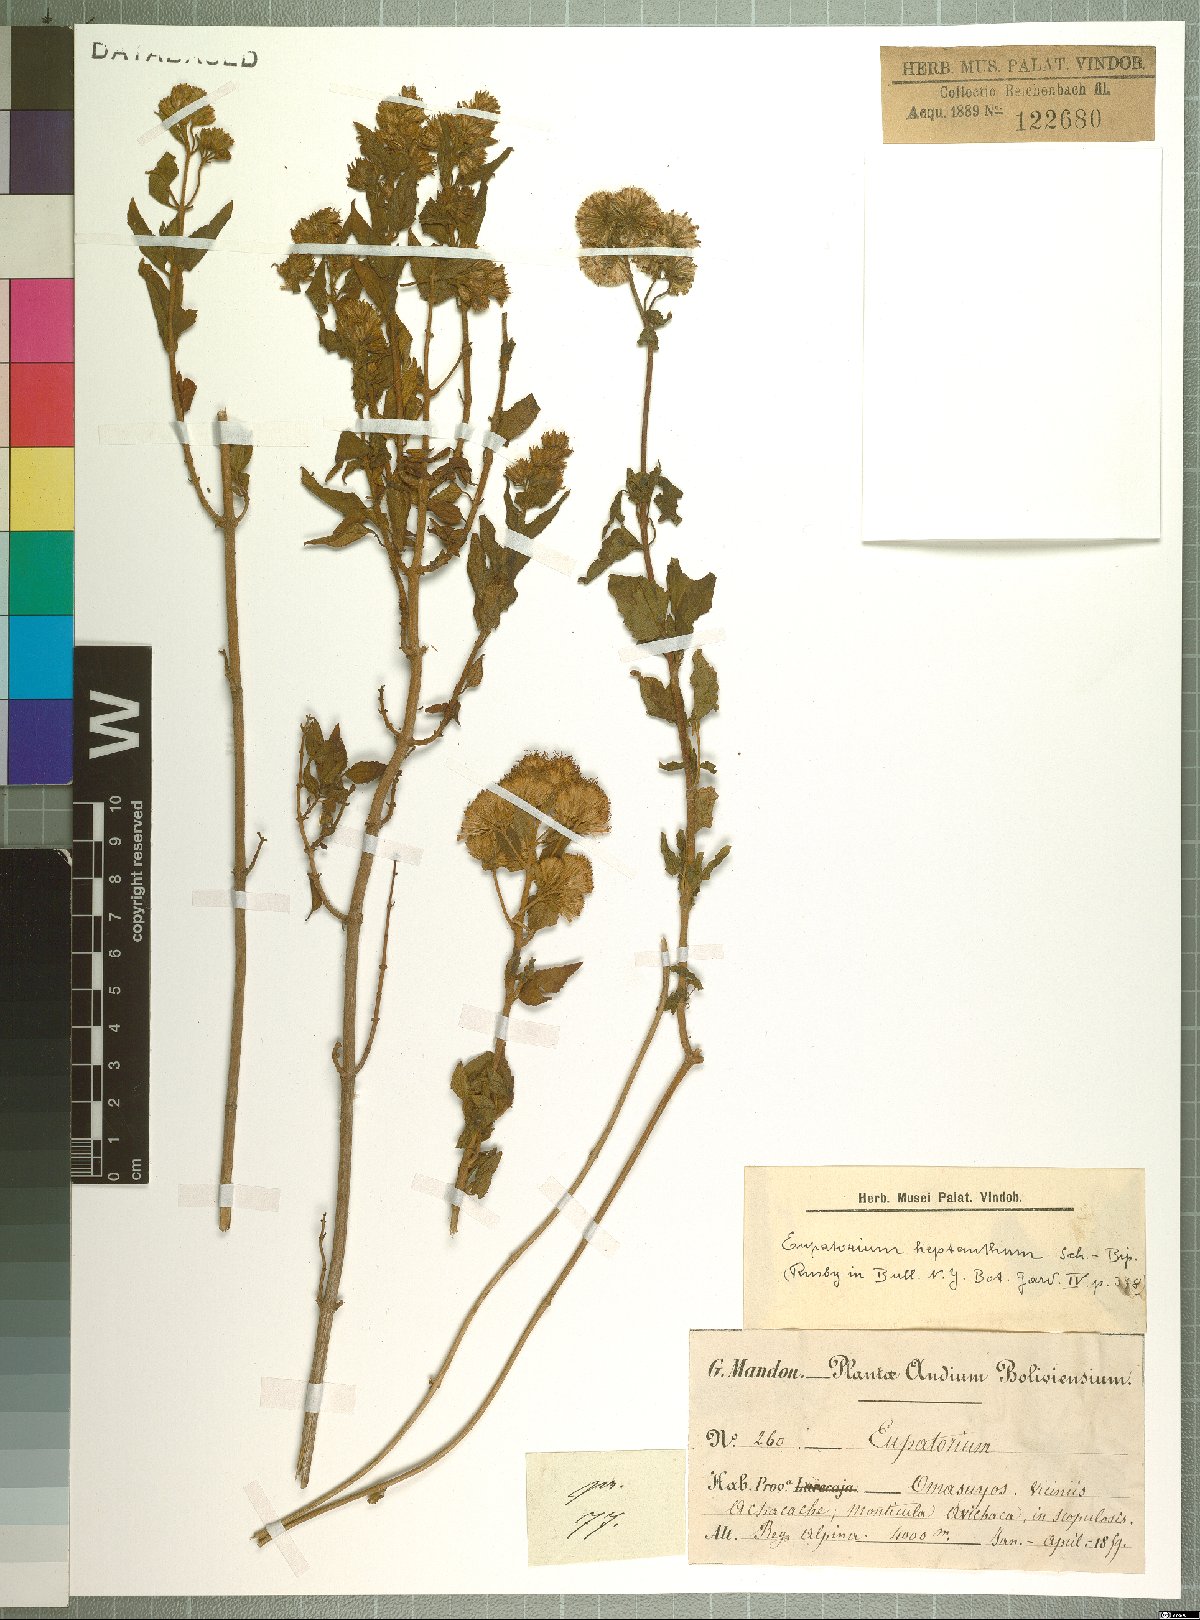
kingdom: Plantae
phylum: Tracheophyta
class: Magnoliopsida
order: Asterales
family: Asteraceae
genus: Ophryosporus
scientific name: Ophryosporus heptanthus
